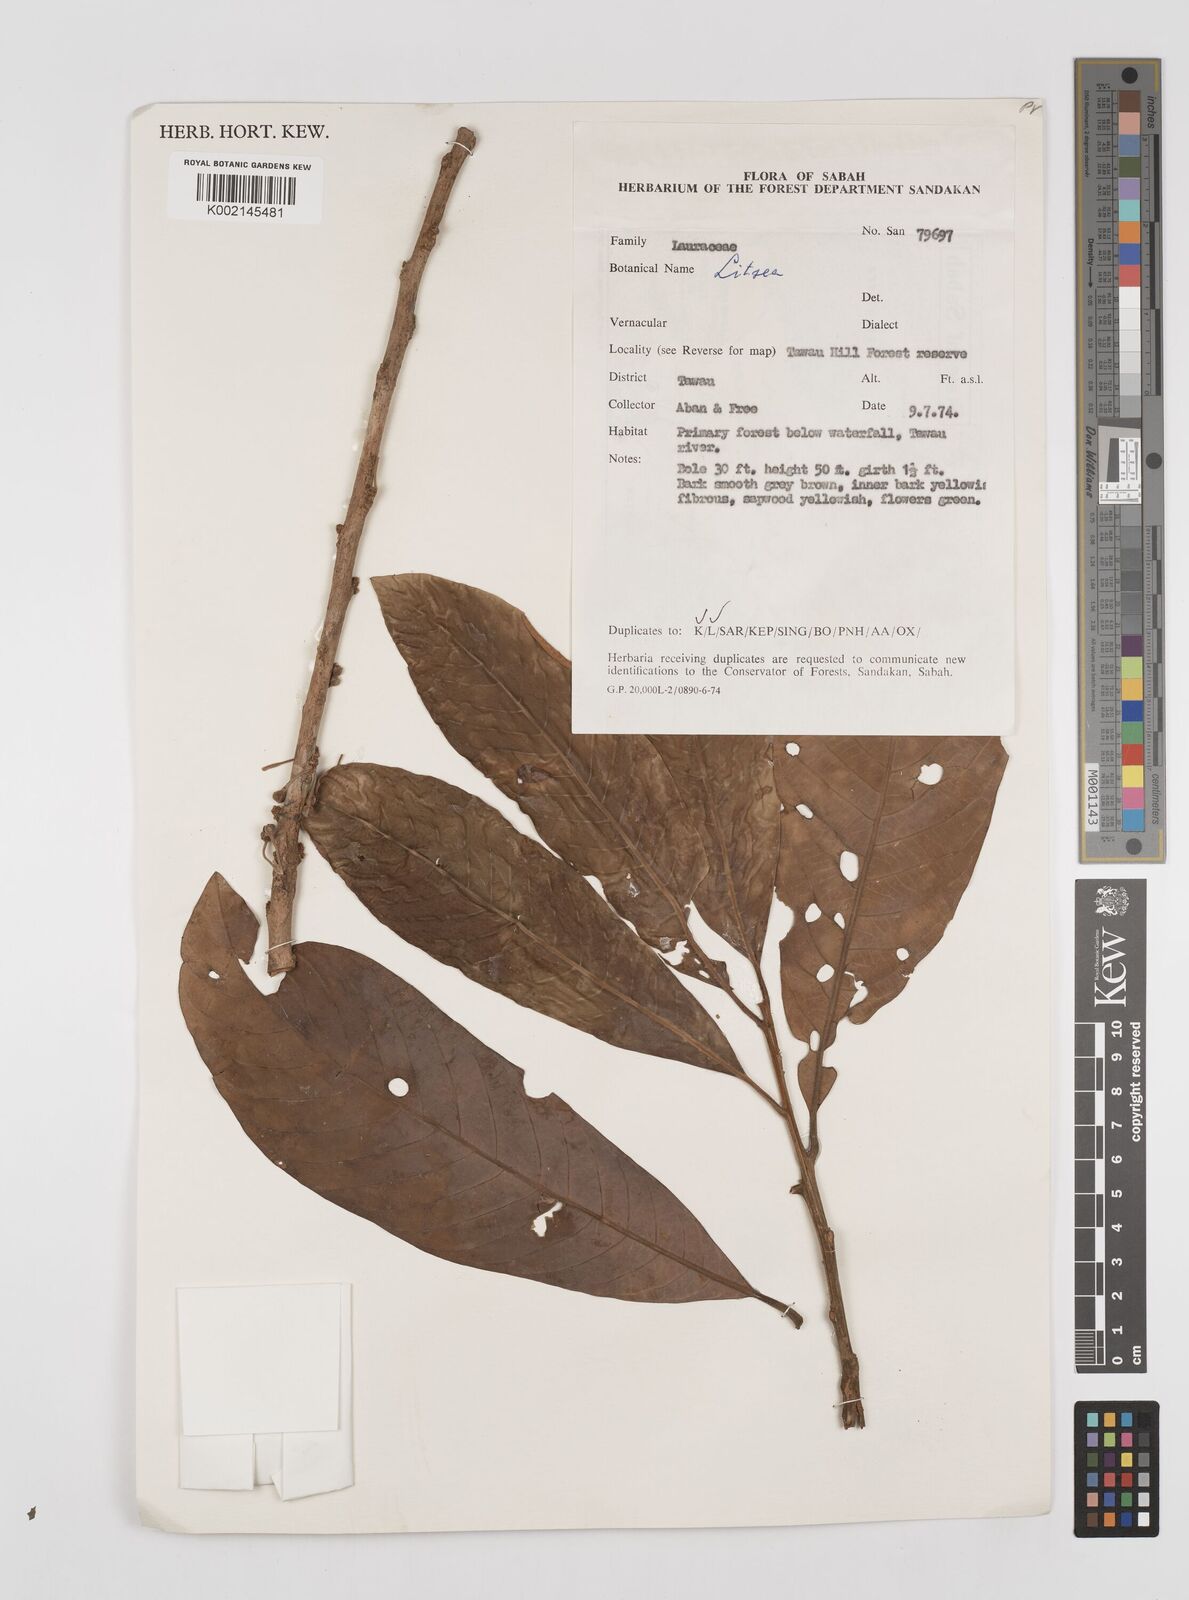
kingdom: Plantae
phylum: Tracheophyta
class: Magnoliopsida
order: Laurales
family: Lauraceae
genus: Litsea
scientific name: Litsea
